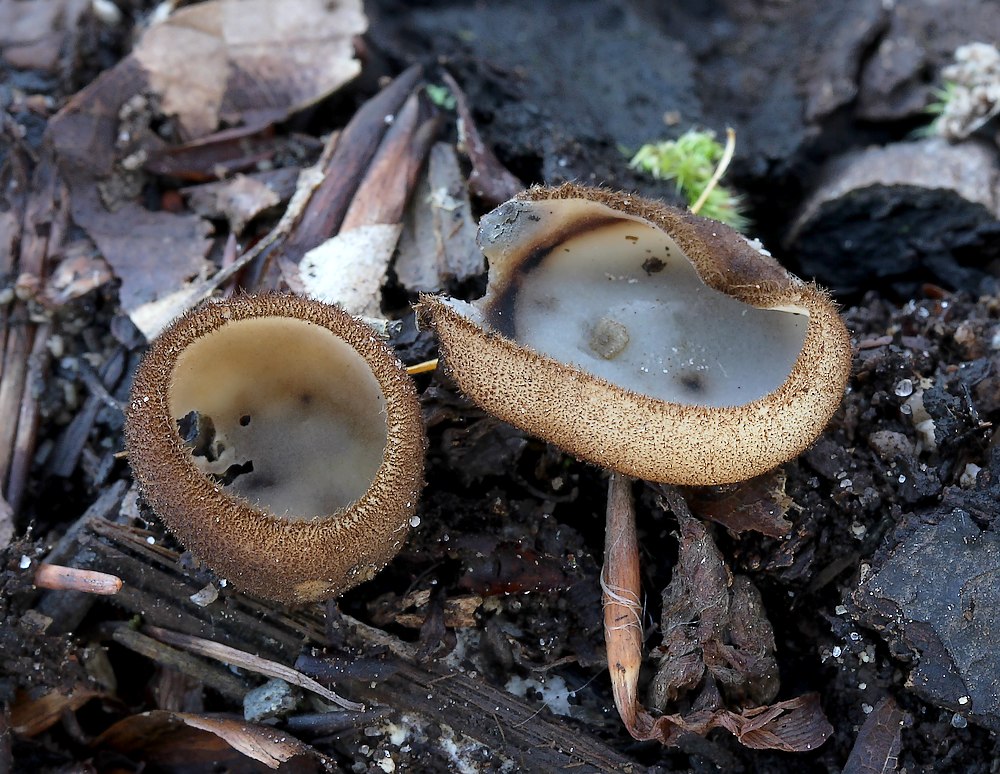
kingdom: Fungi
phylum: Ascomycota
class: Pezizomycetes
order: Pezizales
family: Pyronemataceae
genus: Humaria
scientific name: Humaria hemisphaerica
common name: halvkugleformet børstebæger
